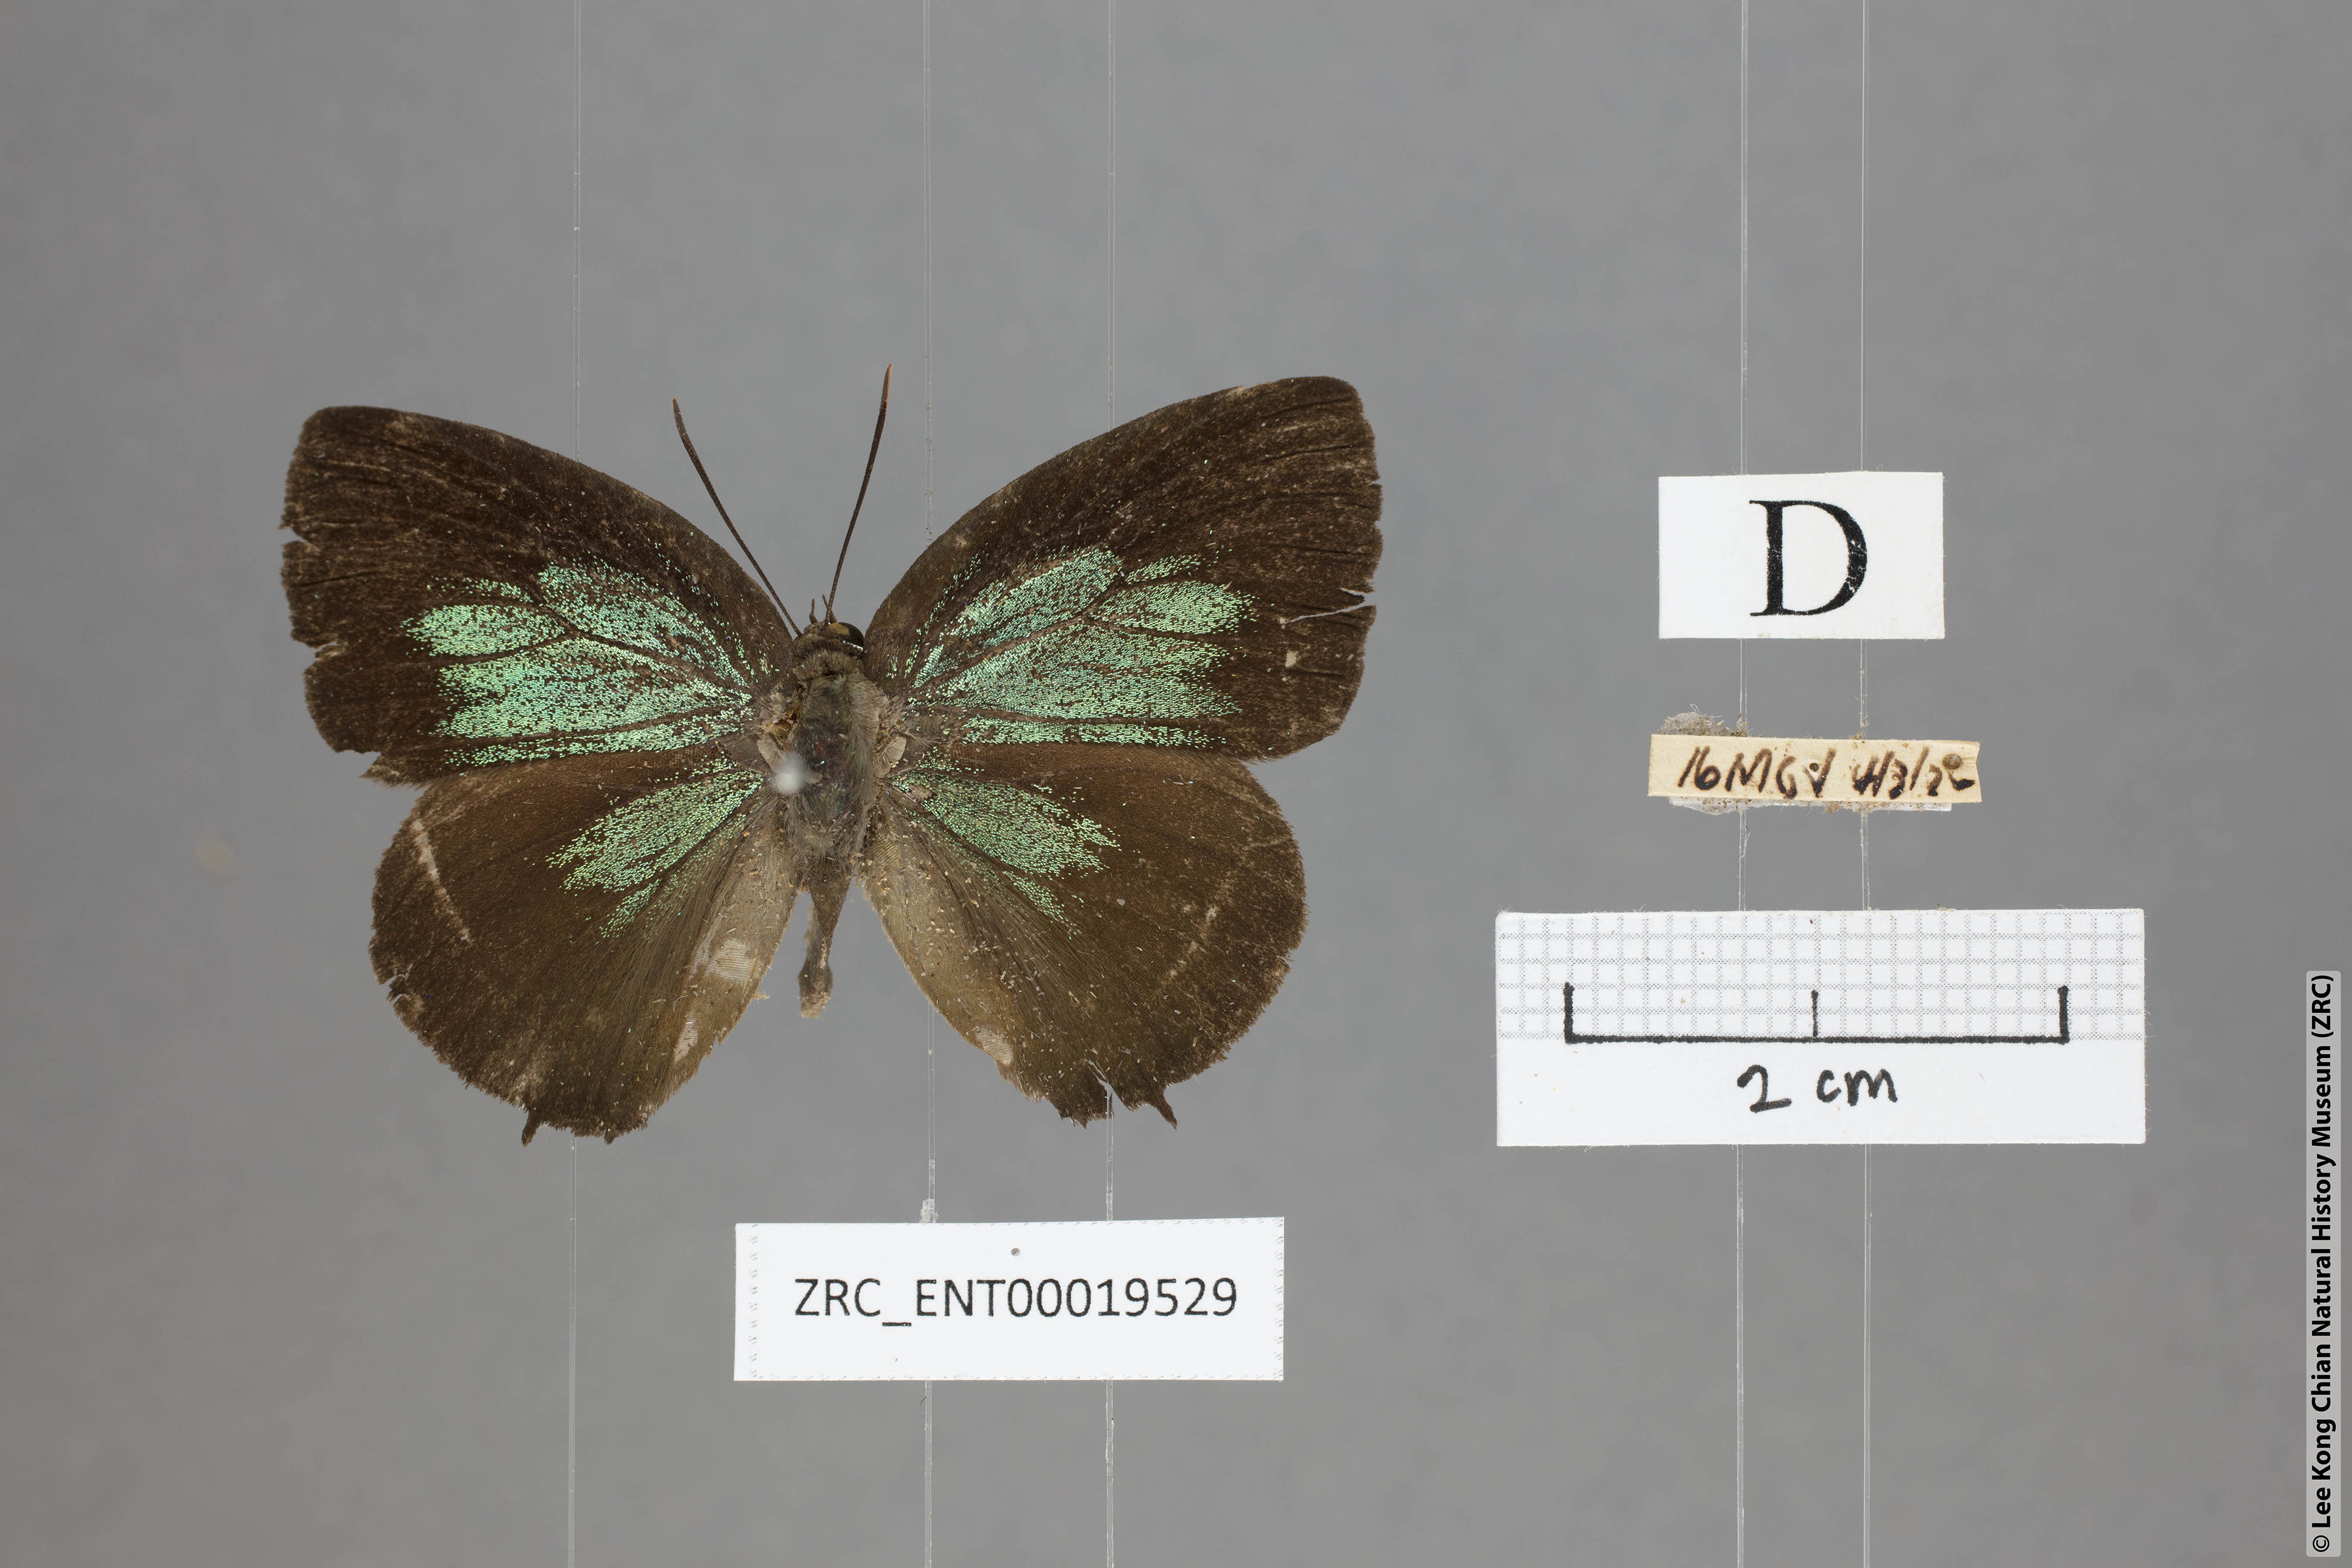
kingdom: Animalia
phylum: Arthropoda
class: Insecta
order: Lepidoptera
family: Lycaenidae
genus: Arhopala
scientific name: Arhopala horsfieldi
